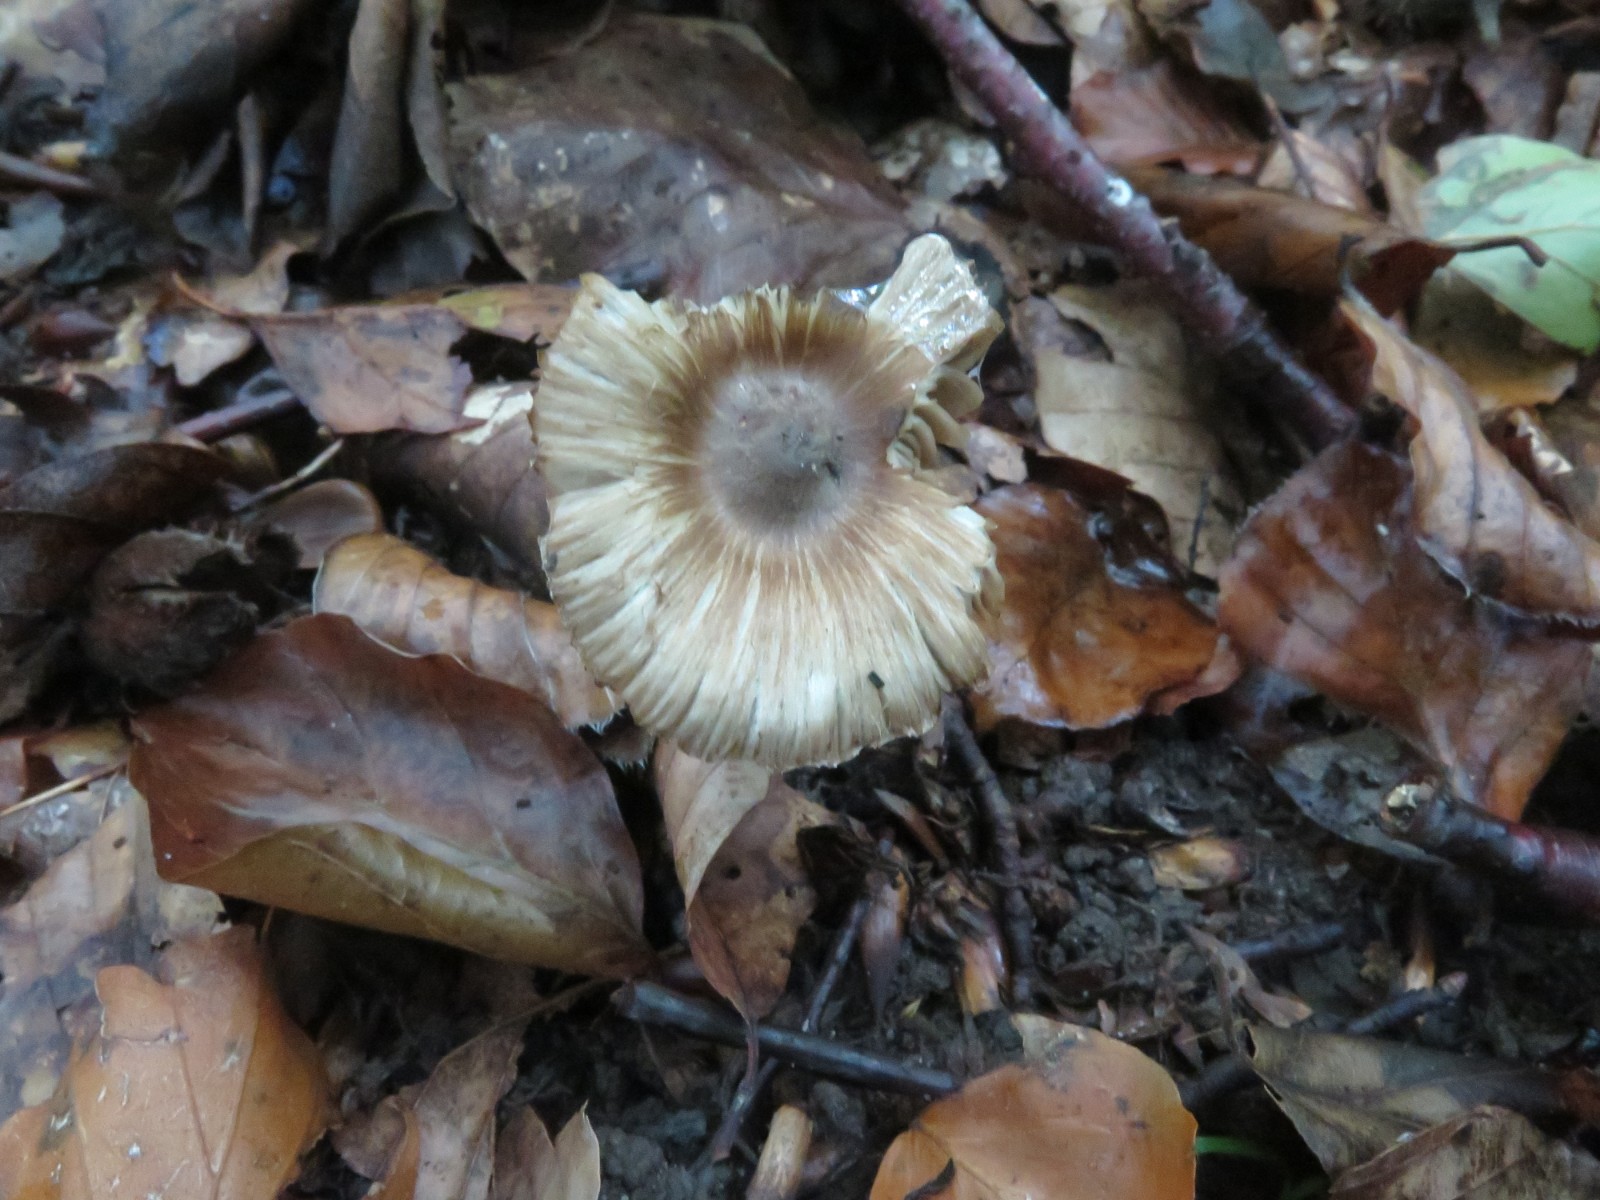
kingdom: Fungi
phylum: Basidiomycota
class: Agaricomycetes
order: Agaricales
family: Inocybaceae
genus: Inocybe
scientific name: Inocybe asterospora
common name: stjernesporet trævlhat
